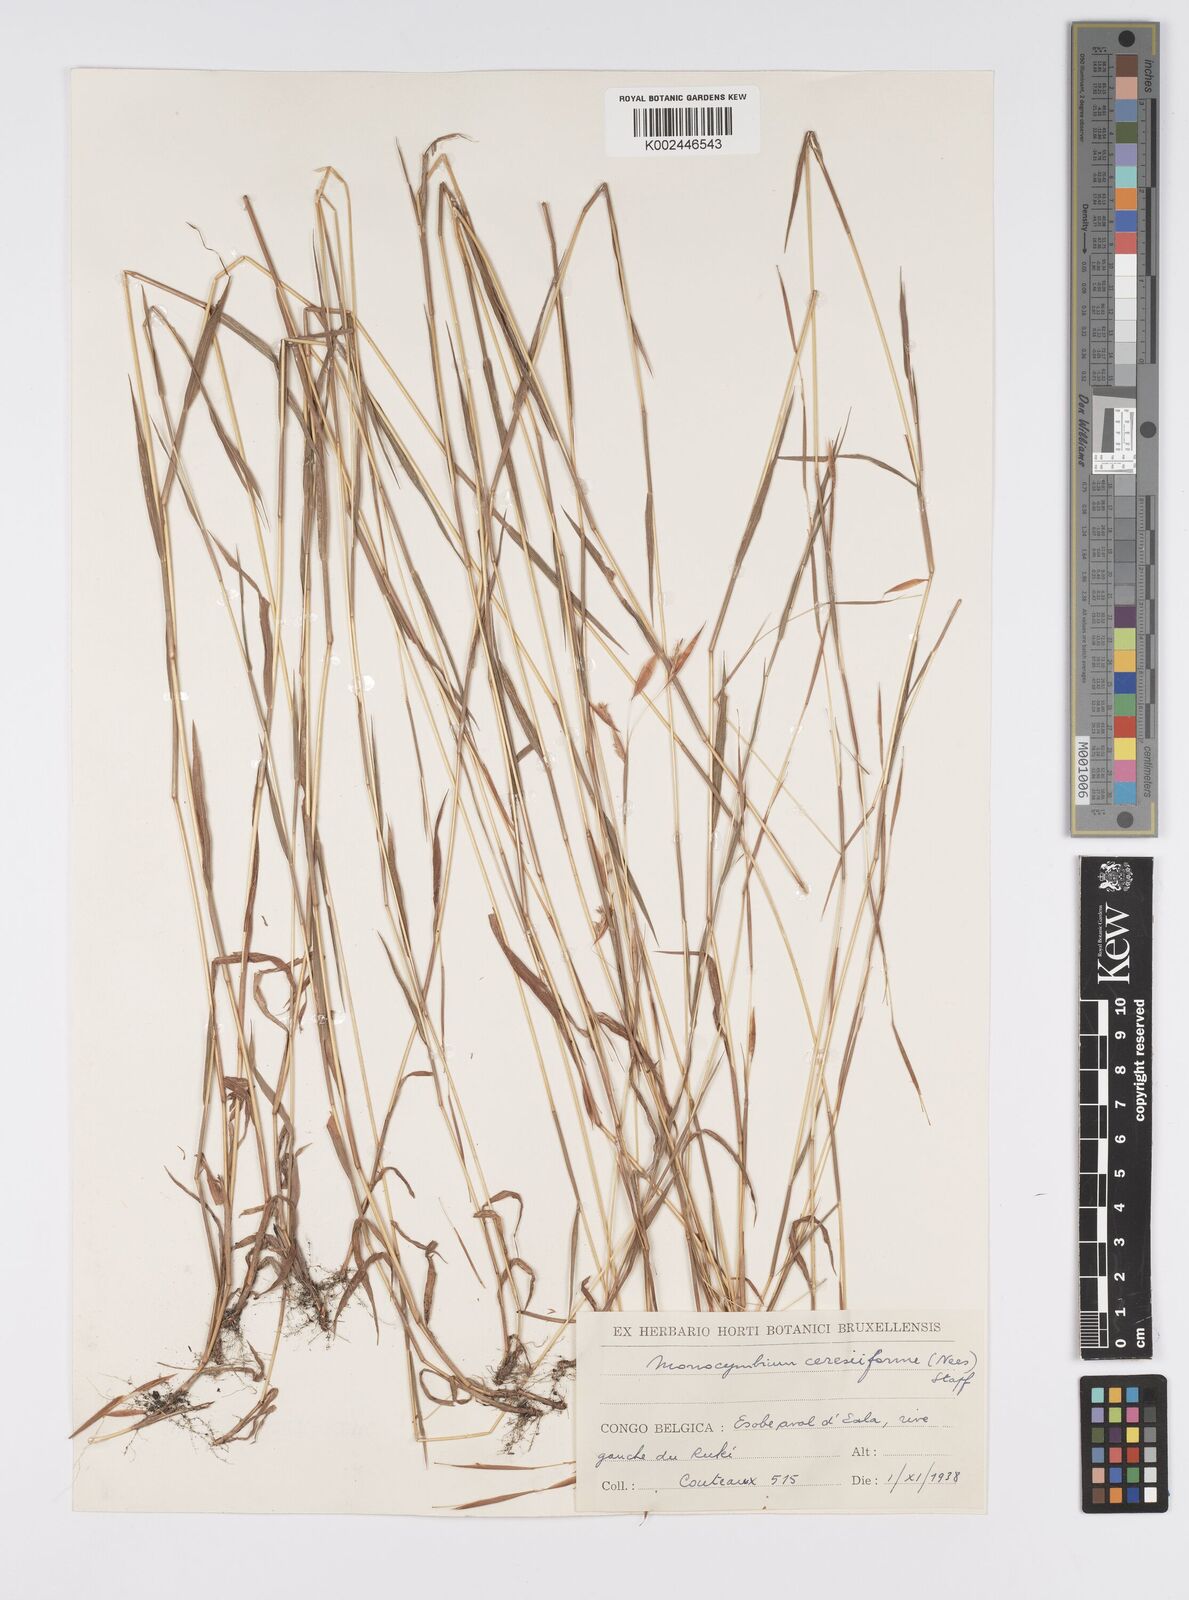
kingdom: Plantae
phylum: Tracheophyta
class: Liliopsida
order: Poales
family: Poaceae
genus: Monocymbium
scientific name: Monocymbium ceresiiforme
